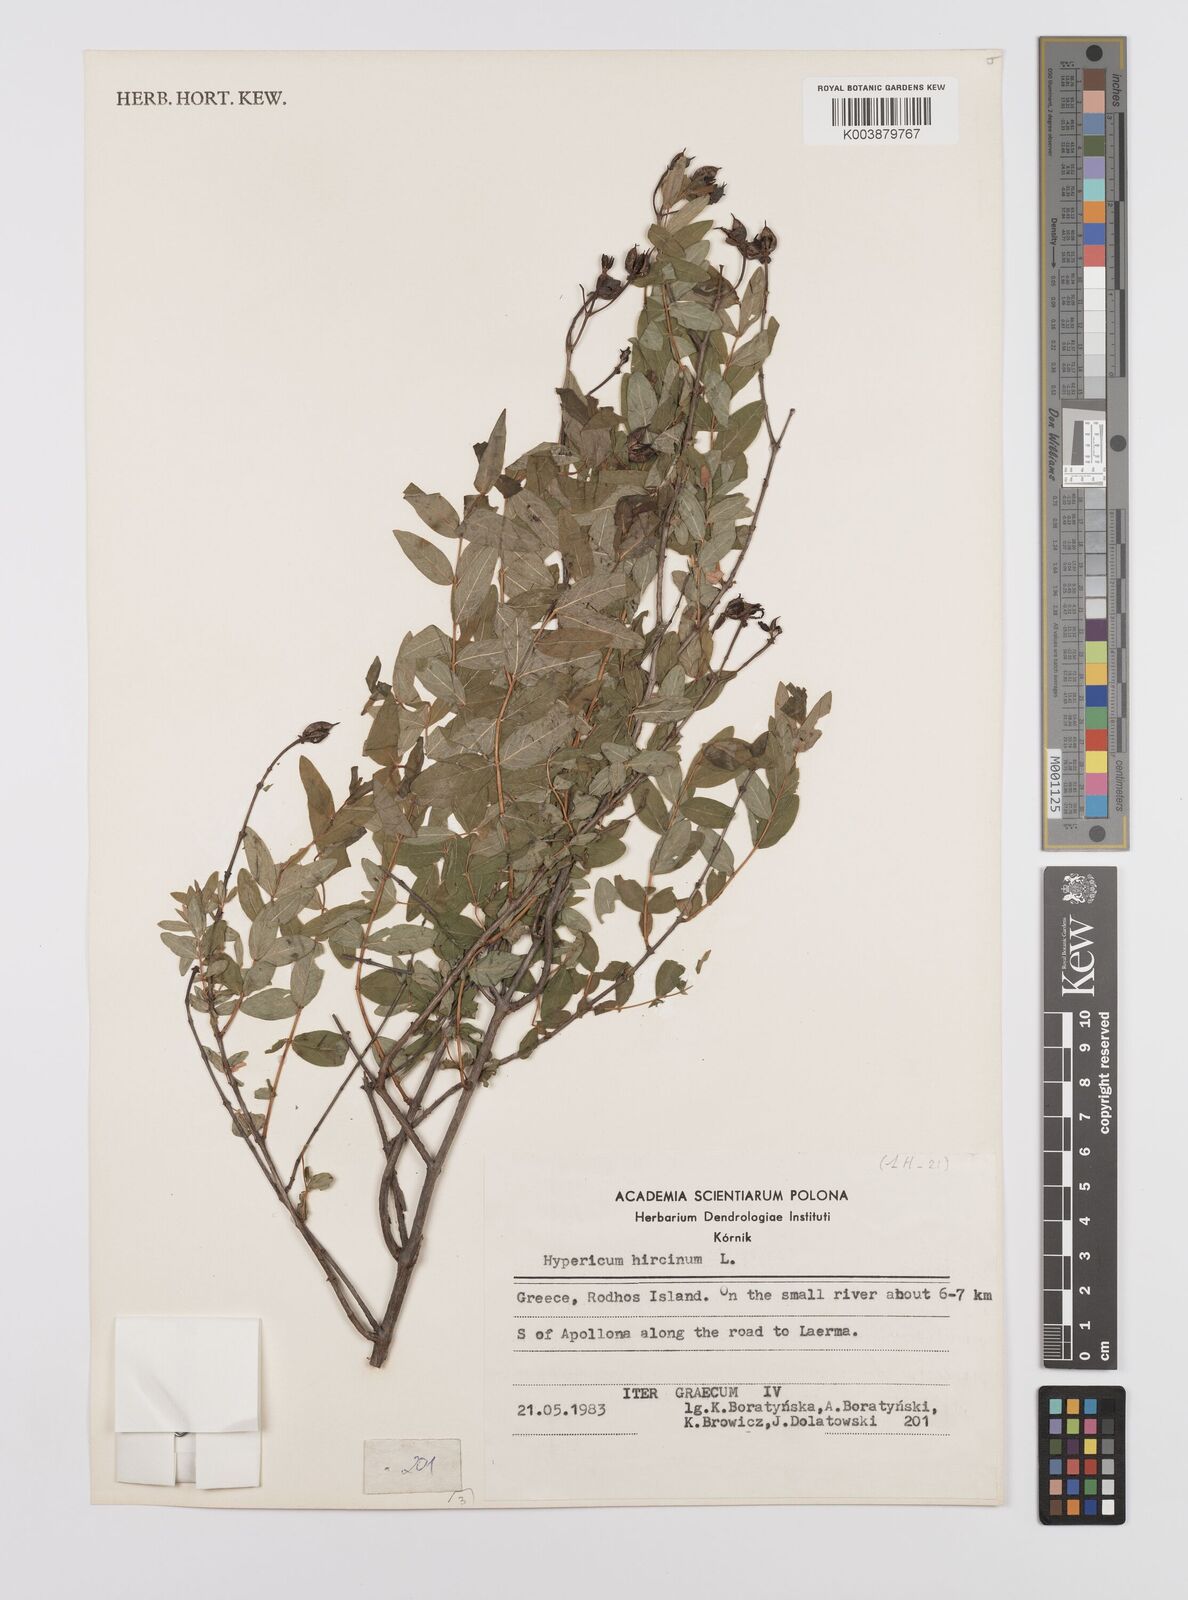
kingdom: Plantae
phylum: Tracheophyta
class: Magnoliopsida
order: Malpighiales
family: Hypericaceae
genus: Hypericum
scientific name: Hypericum hircinum
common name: Stinking tutsan
